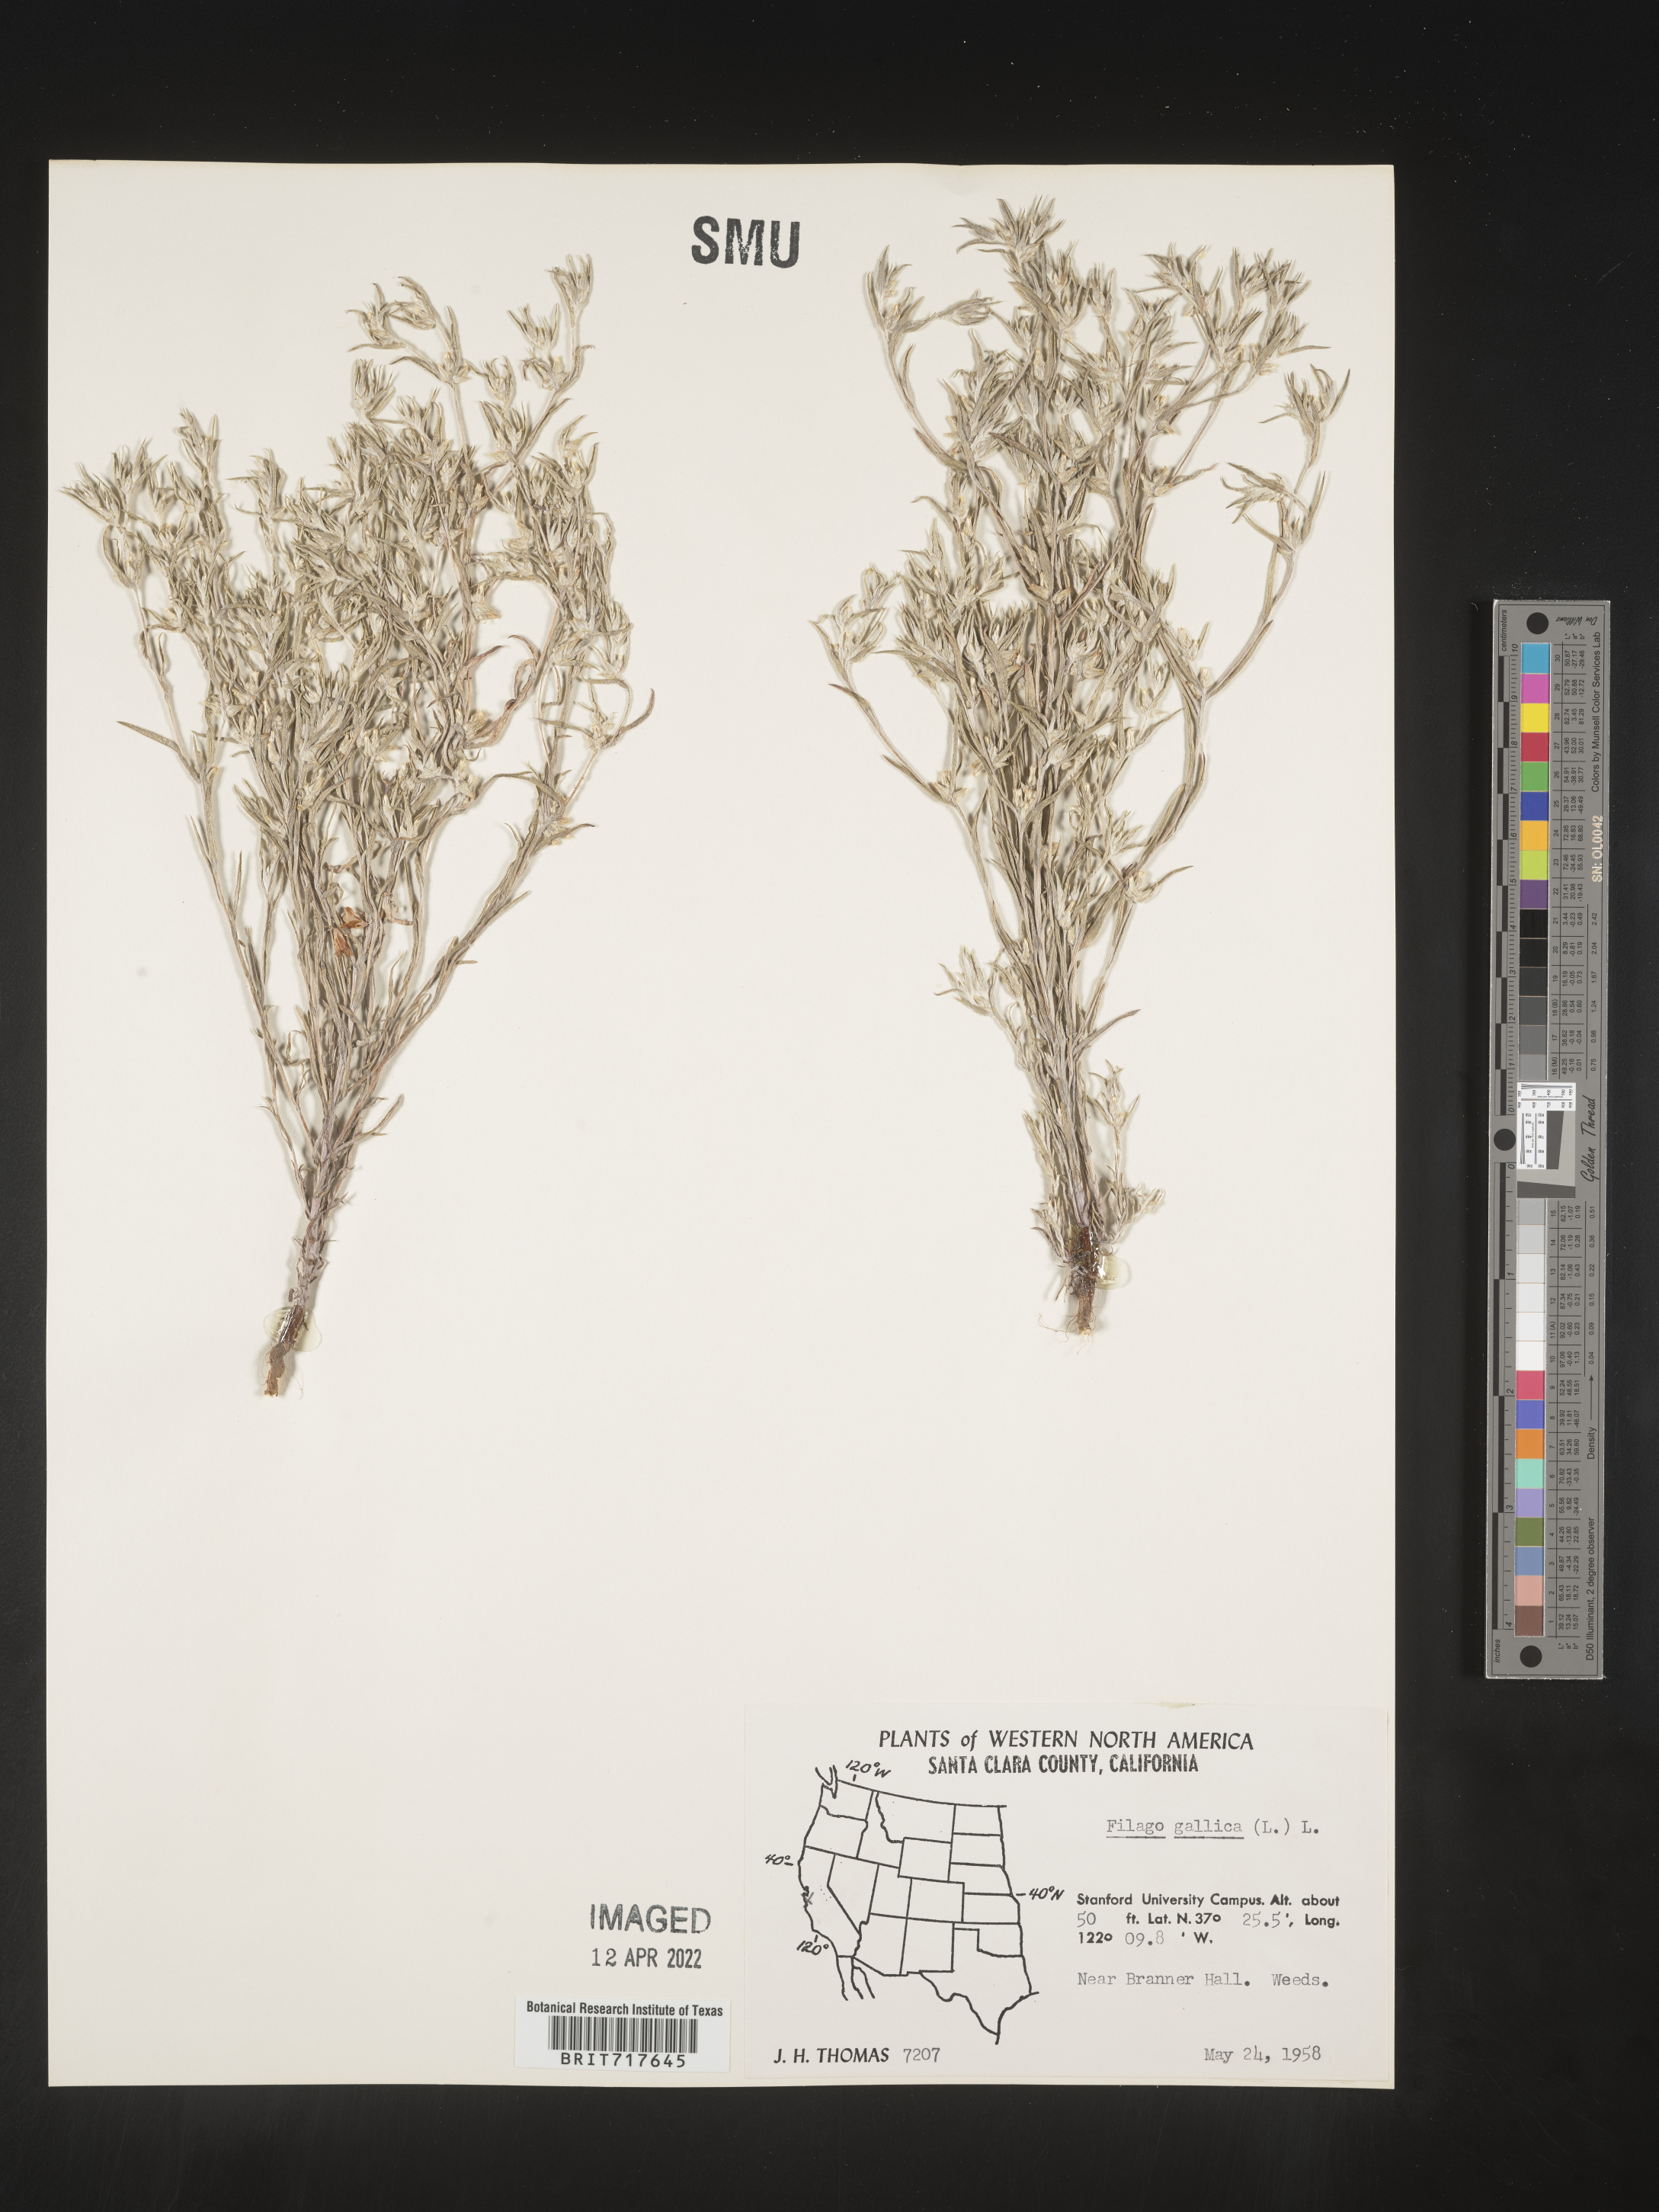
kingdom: Plantae
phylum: Tracheophyta
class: Magnoliopsida
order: Asterales
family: Asteraceae
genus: Logfia
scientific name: Logfia gallica
